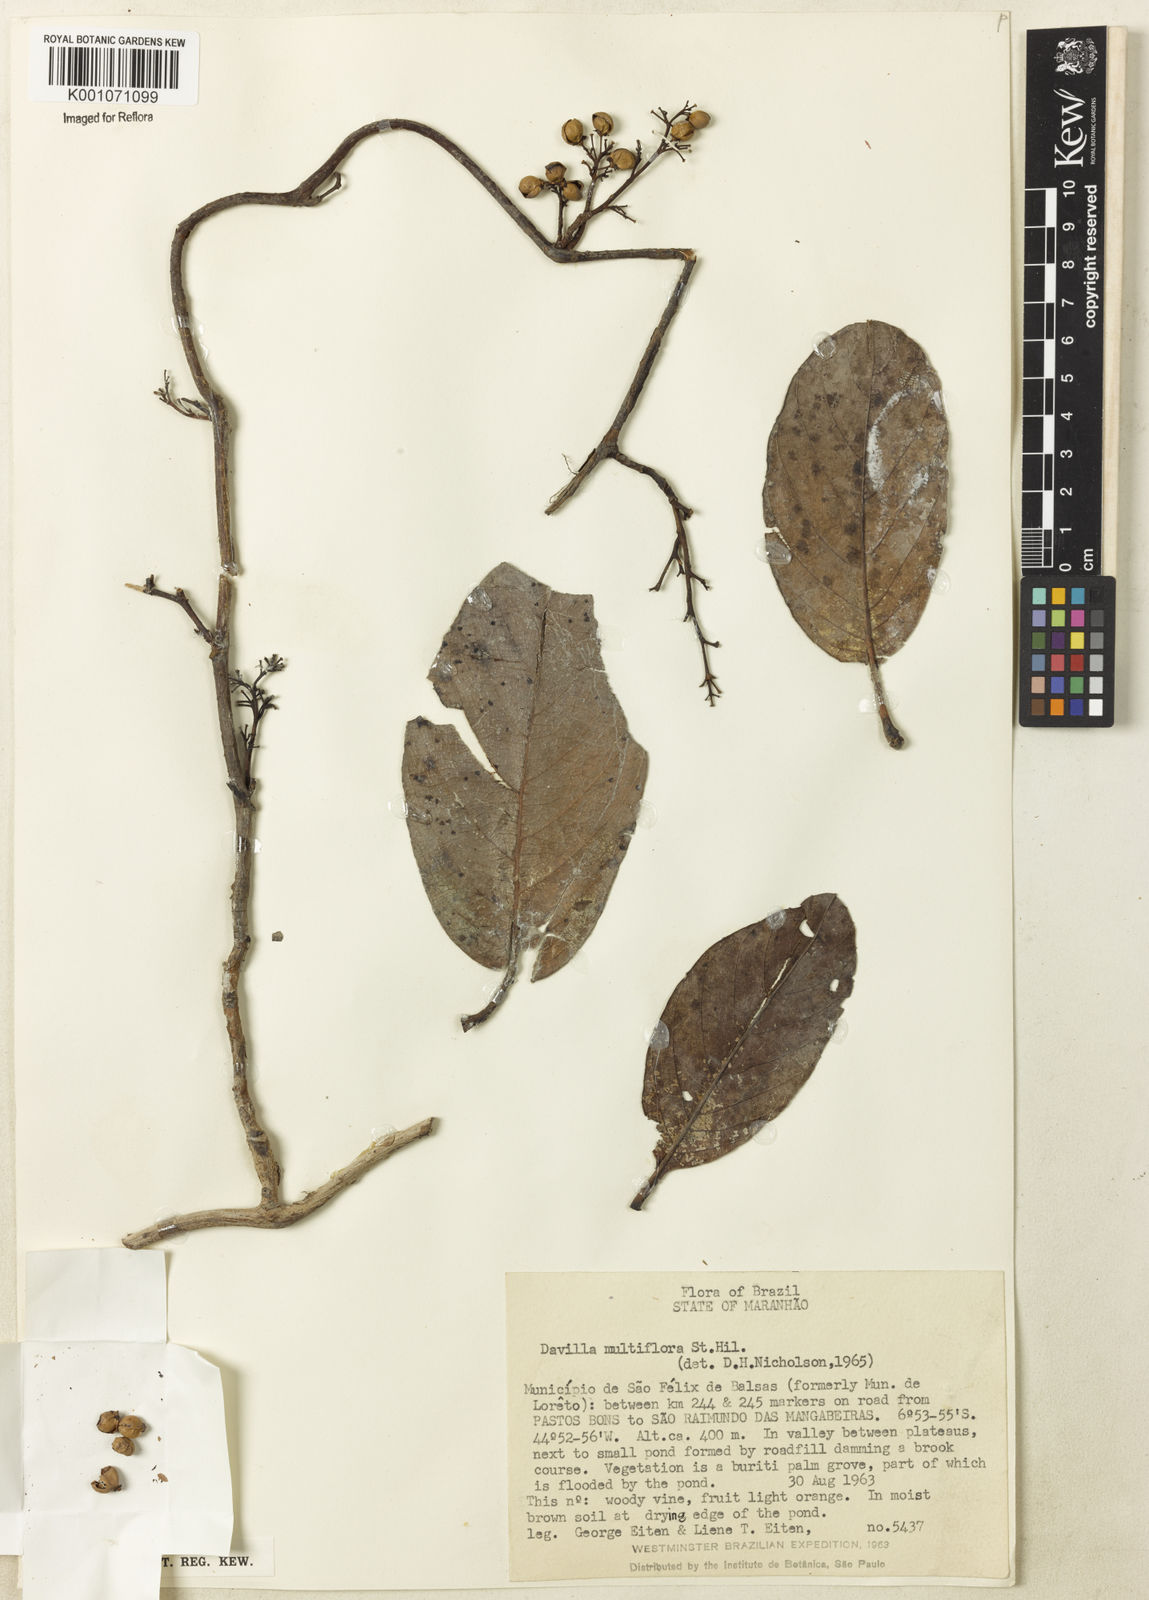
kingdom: Plantae
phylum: Tracheophyta
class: Magnoliopsida
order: Dilleniales
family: Dilleniaceae
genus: Davilla
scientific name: Davilla nitida
